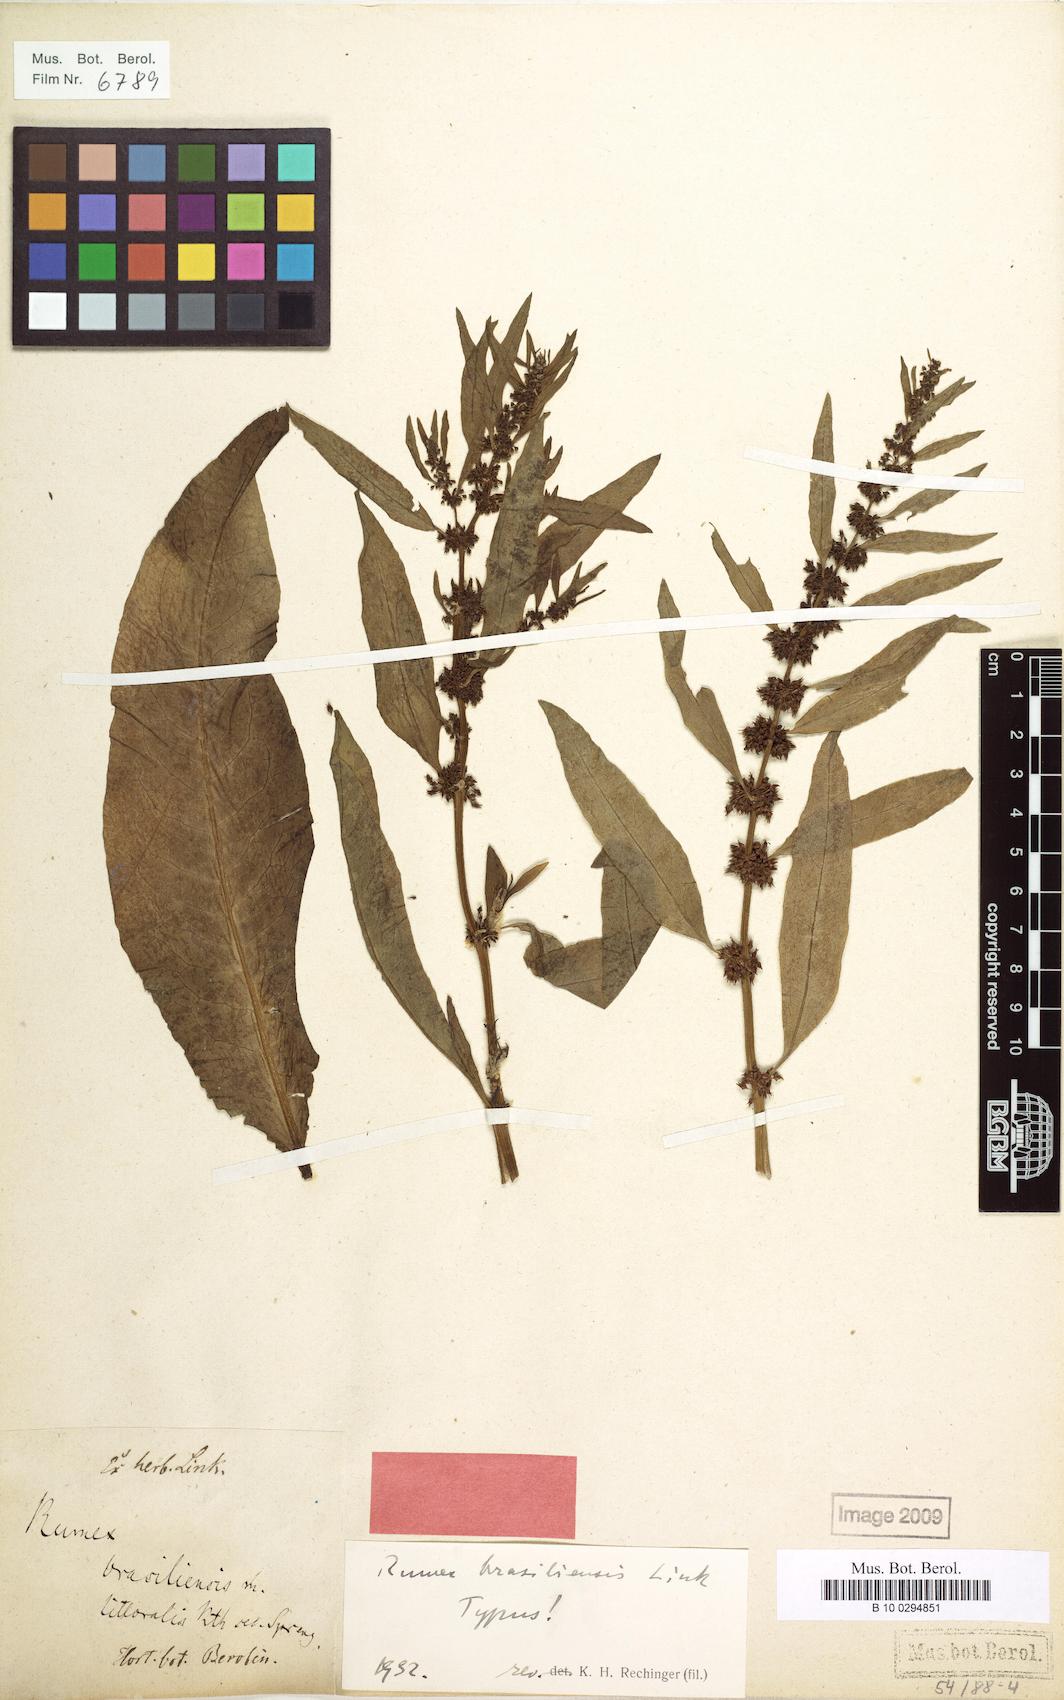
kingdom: Plantae
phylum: Tracheophyta
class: Magnoliopsida
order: Caryophyllales
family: Polygonaceae
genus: Rumex
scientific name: Rumex brasiliensis
